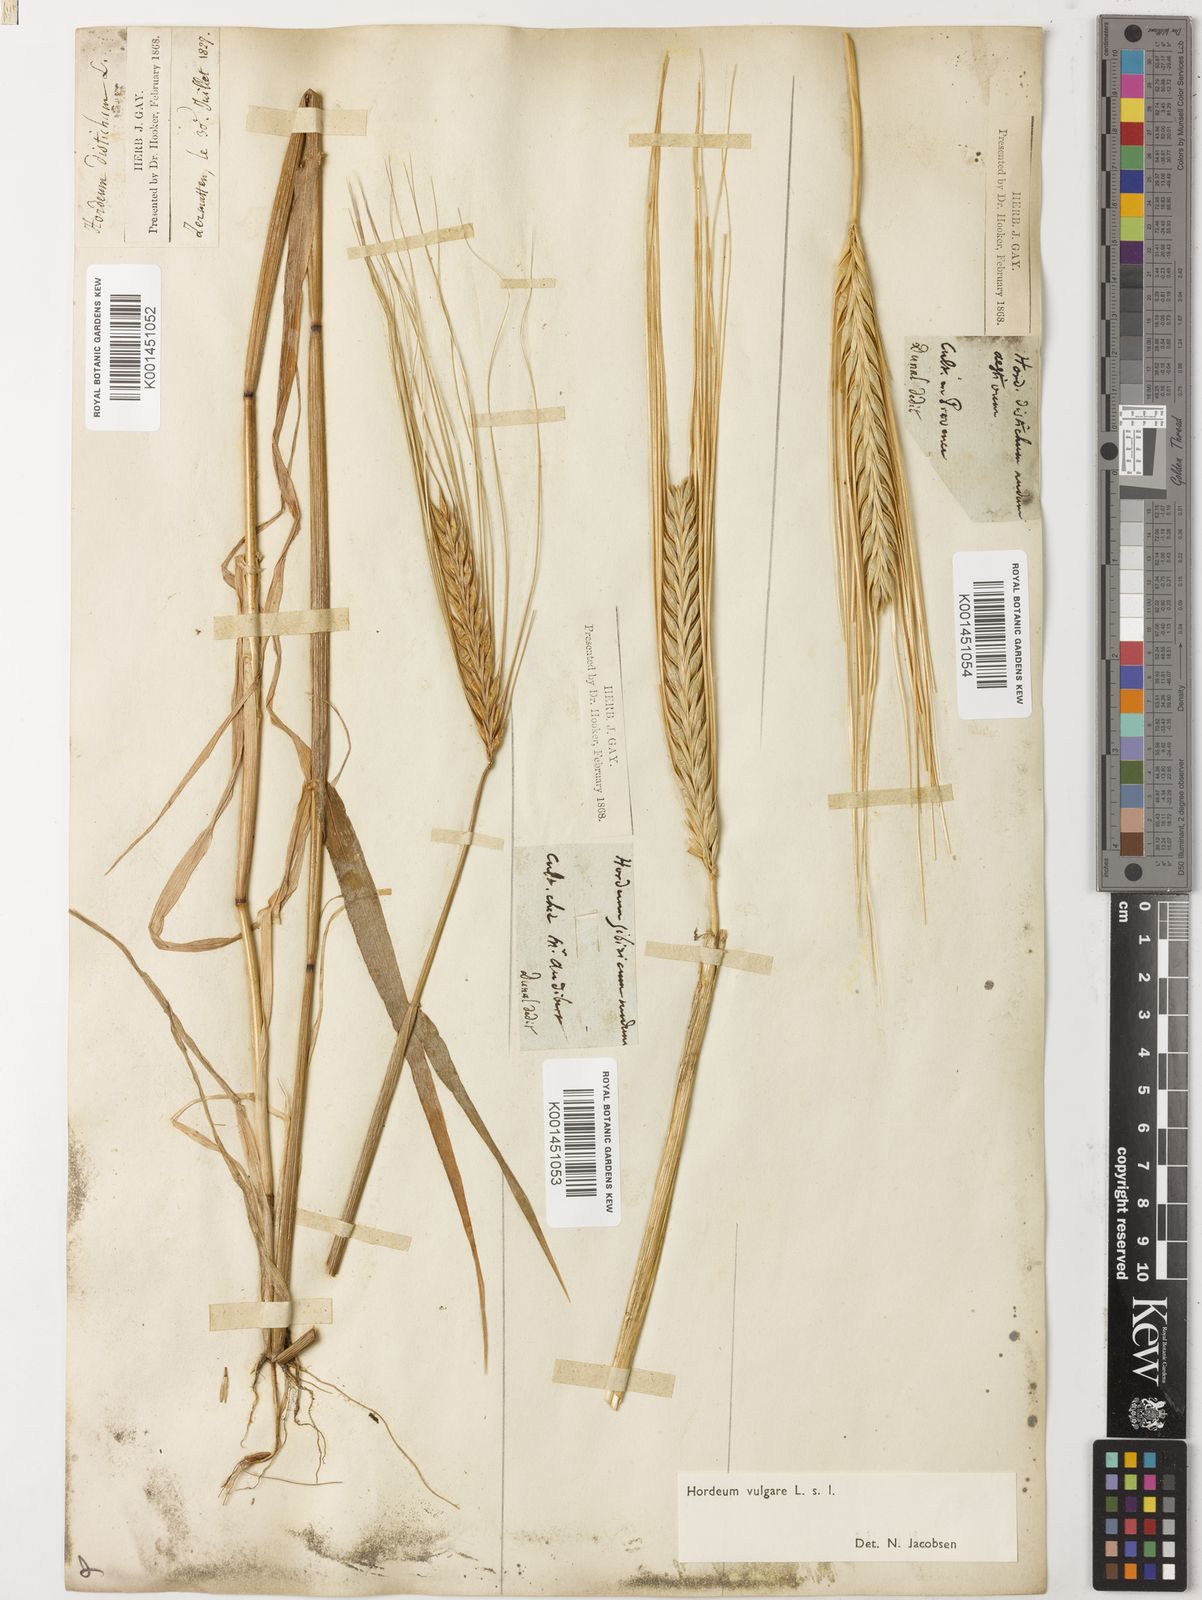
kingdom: Plantae
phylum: Tracheophyta
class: Liliopsida
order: Poales
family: Poaceae
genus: Hordeum
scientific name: Hordeum vulgare
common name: Common barley
